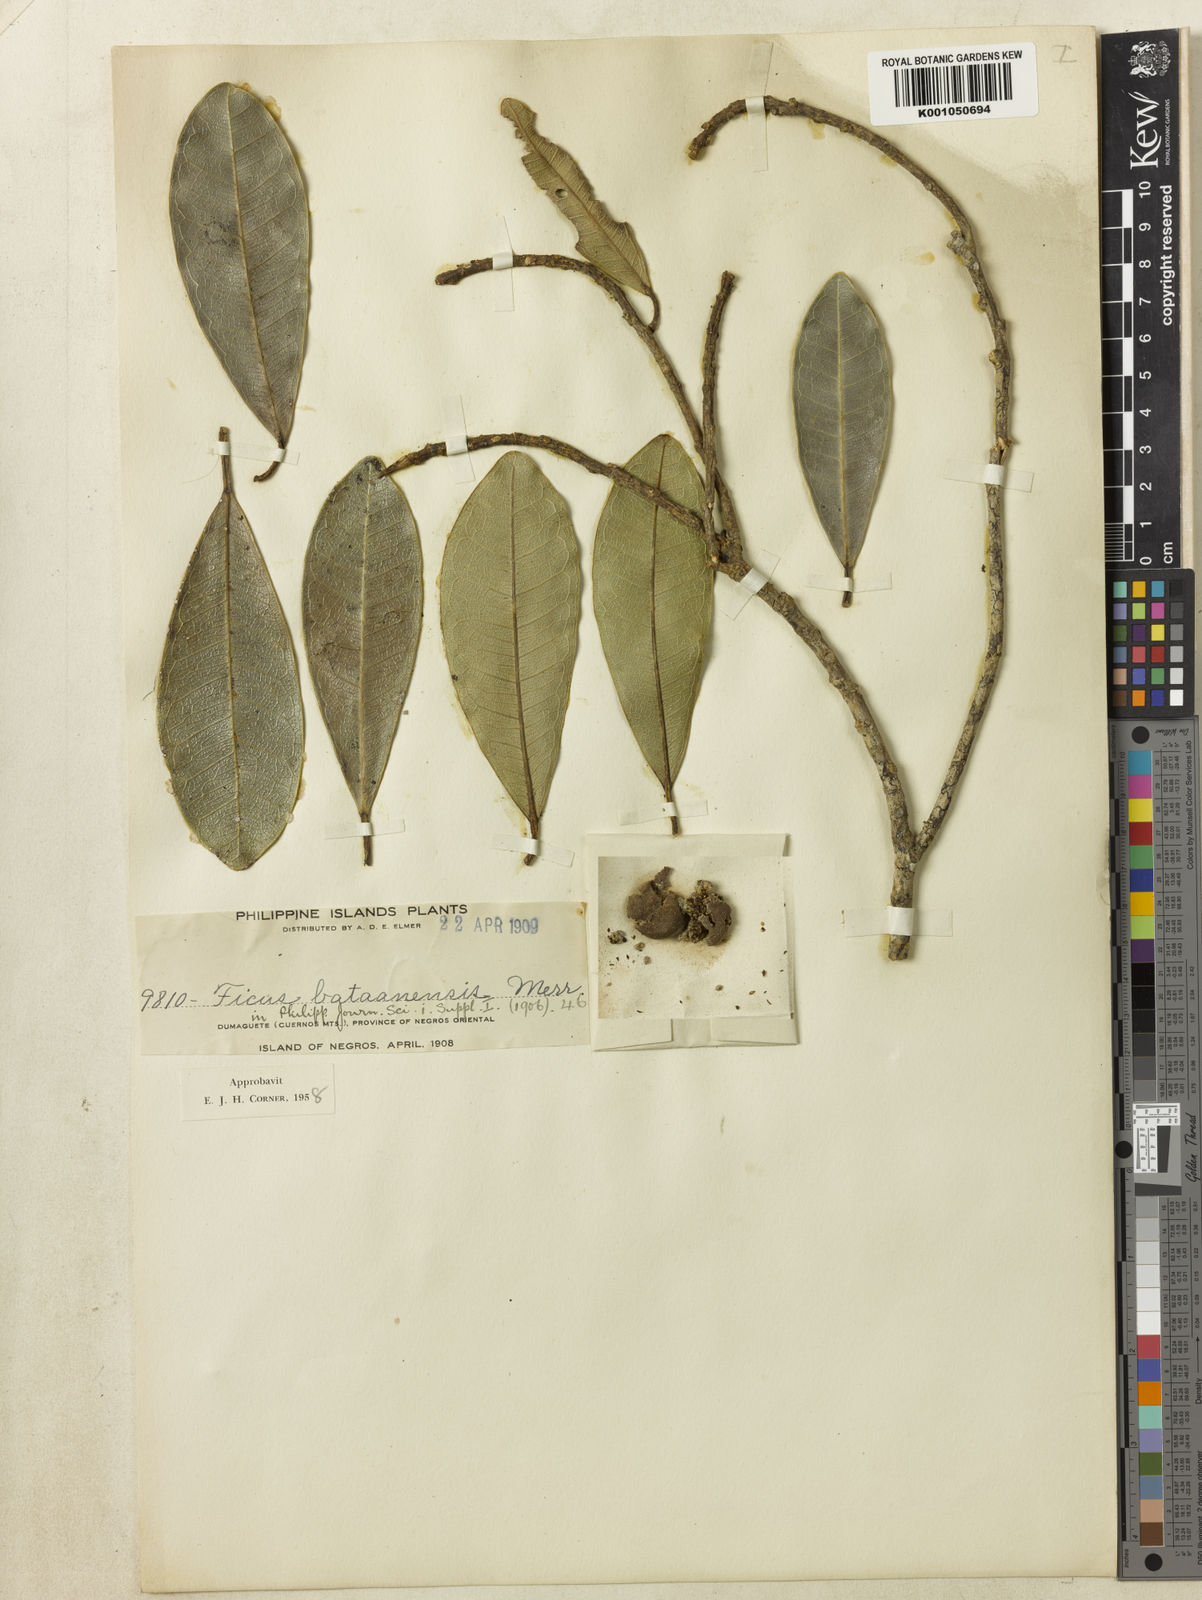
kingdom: Plantae
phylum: Tracheophyta
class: Magnoliopsida
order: Rosales
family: Moraceae
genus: Ficus
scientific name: Ficus bataanensis
